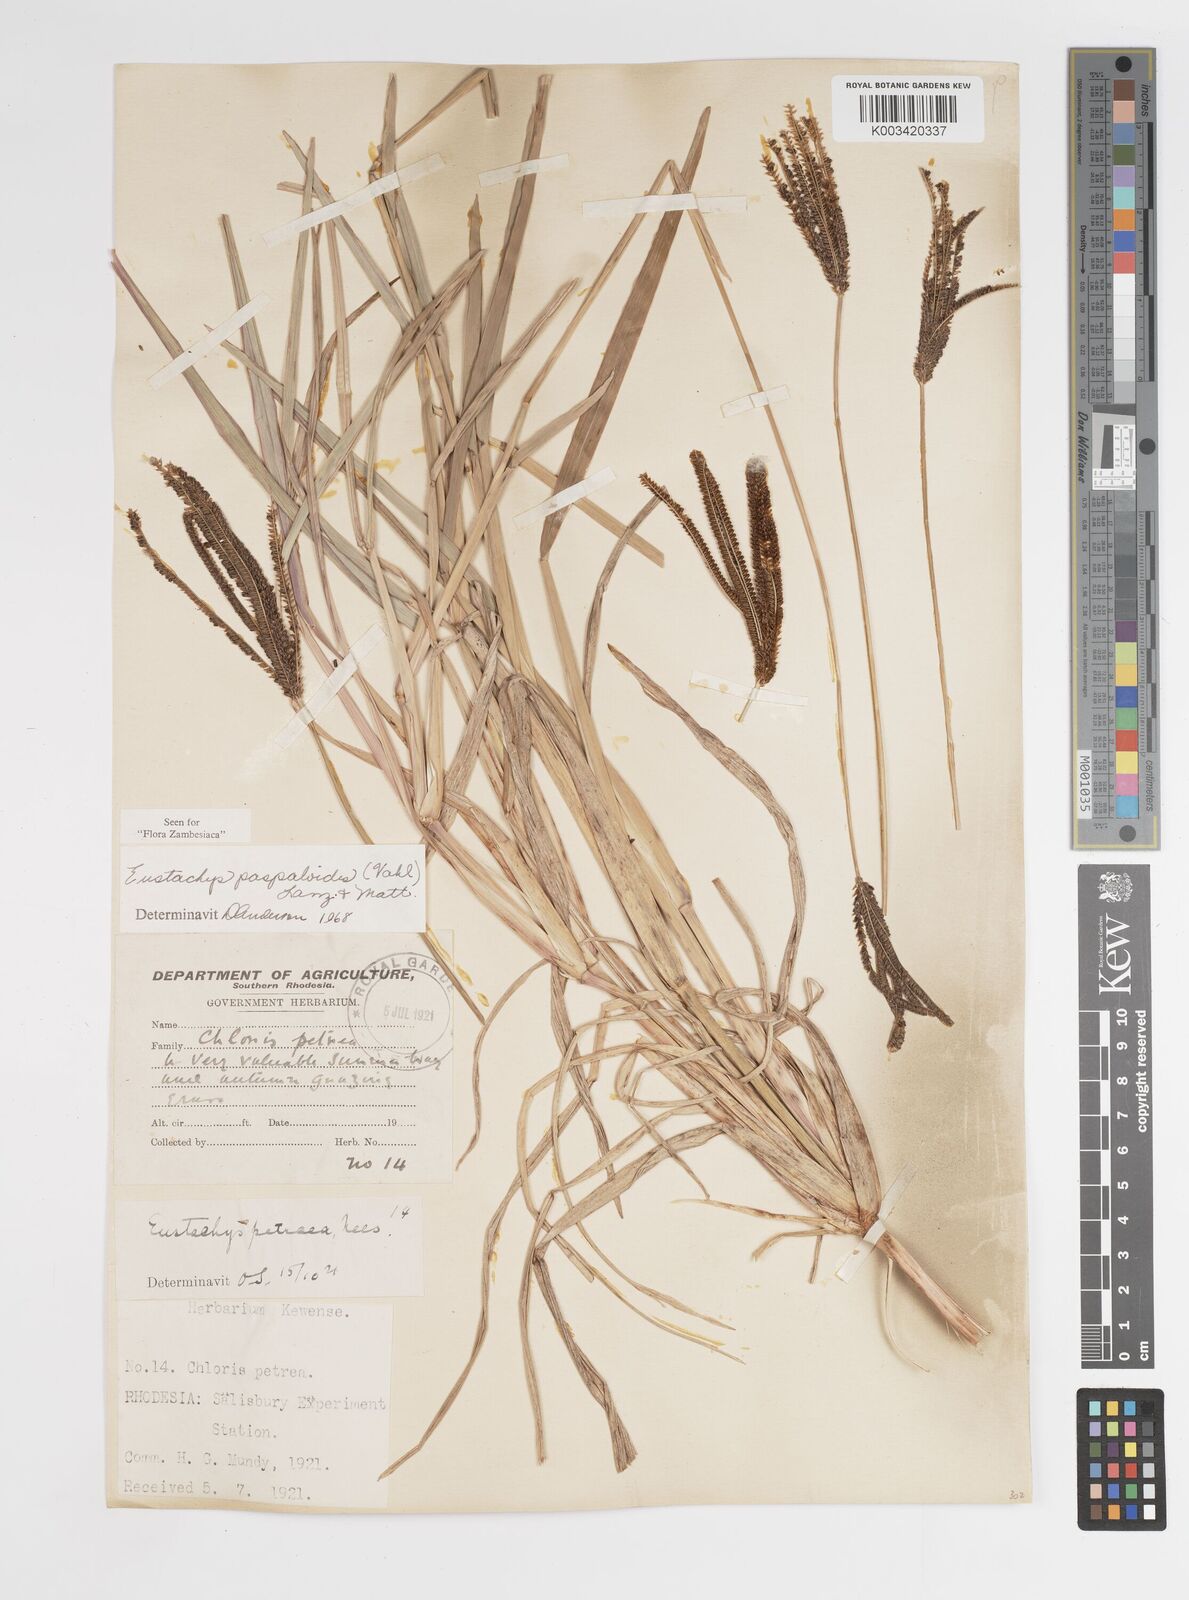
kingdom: Plantae
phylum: Tracheophyta
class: Liliopsida
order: Poales
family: Poaceae
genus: Eustachys
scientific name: Eustachys paspaloides
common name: Caribbean fingergrass
